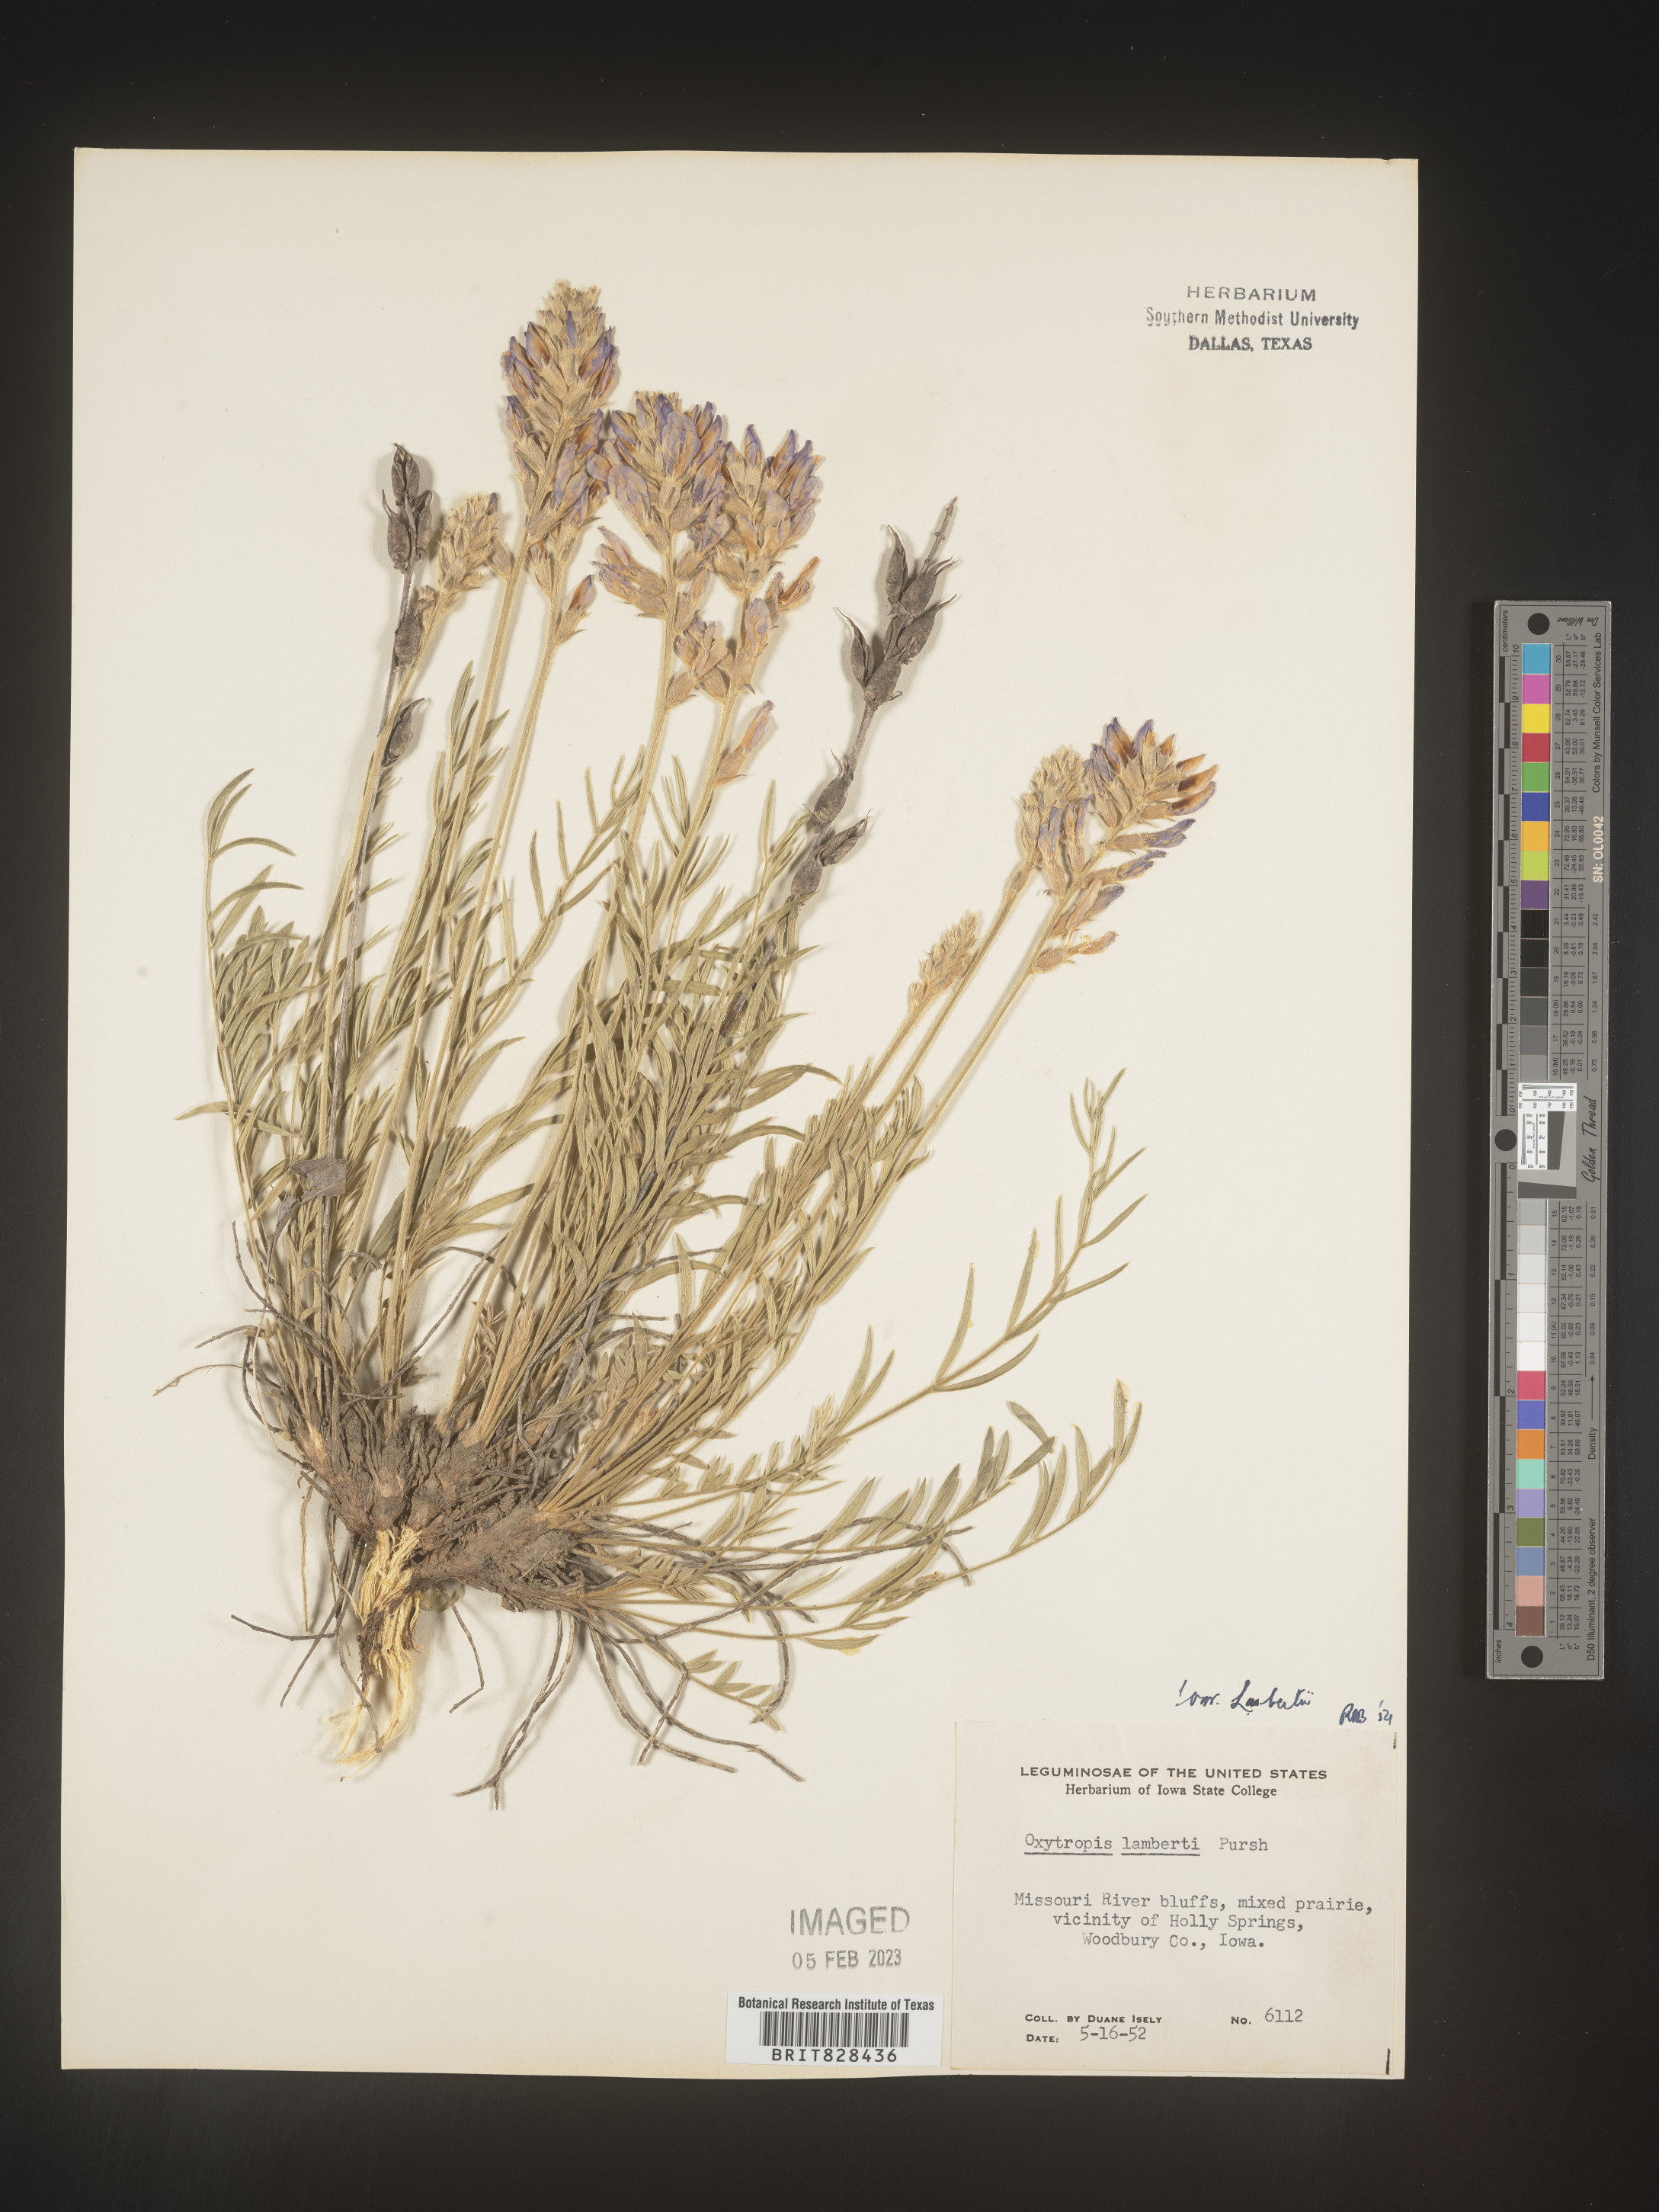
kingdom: Plantae
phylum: Tracheophyta
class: Magnoliopsida
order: Fabales
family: Fabaceae
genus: Oxytropis
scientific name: Oxytropis lambertii
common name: Purple locoweed
